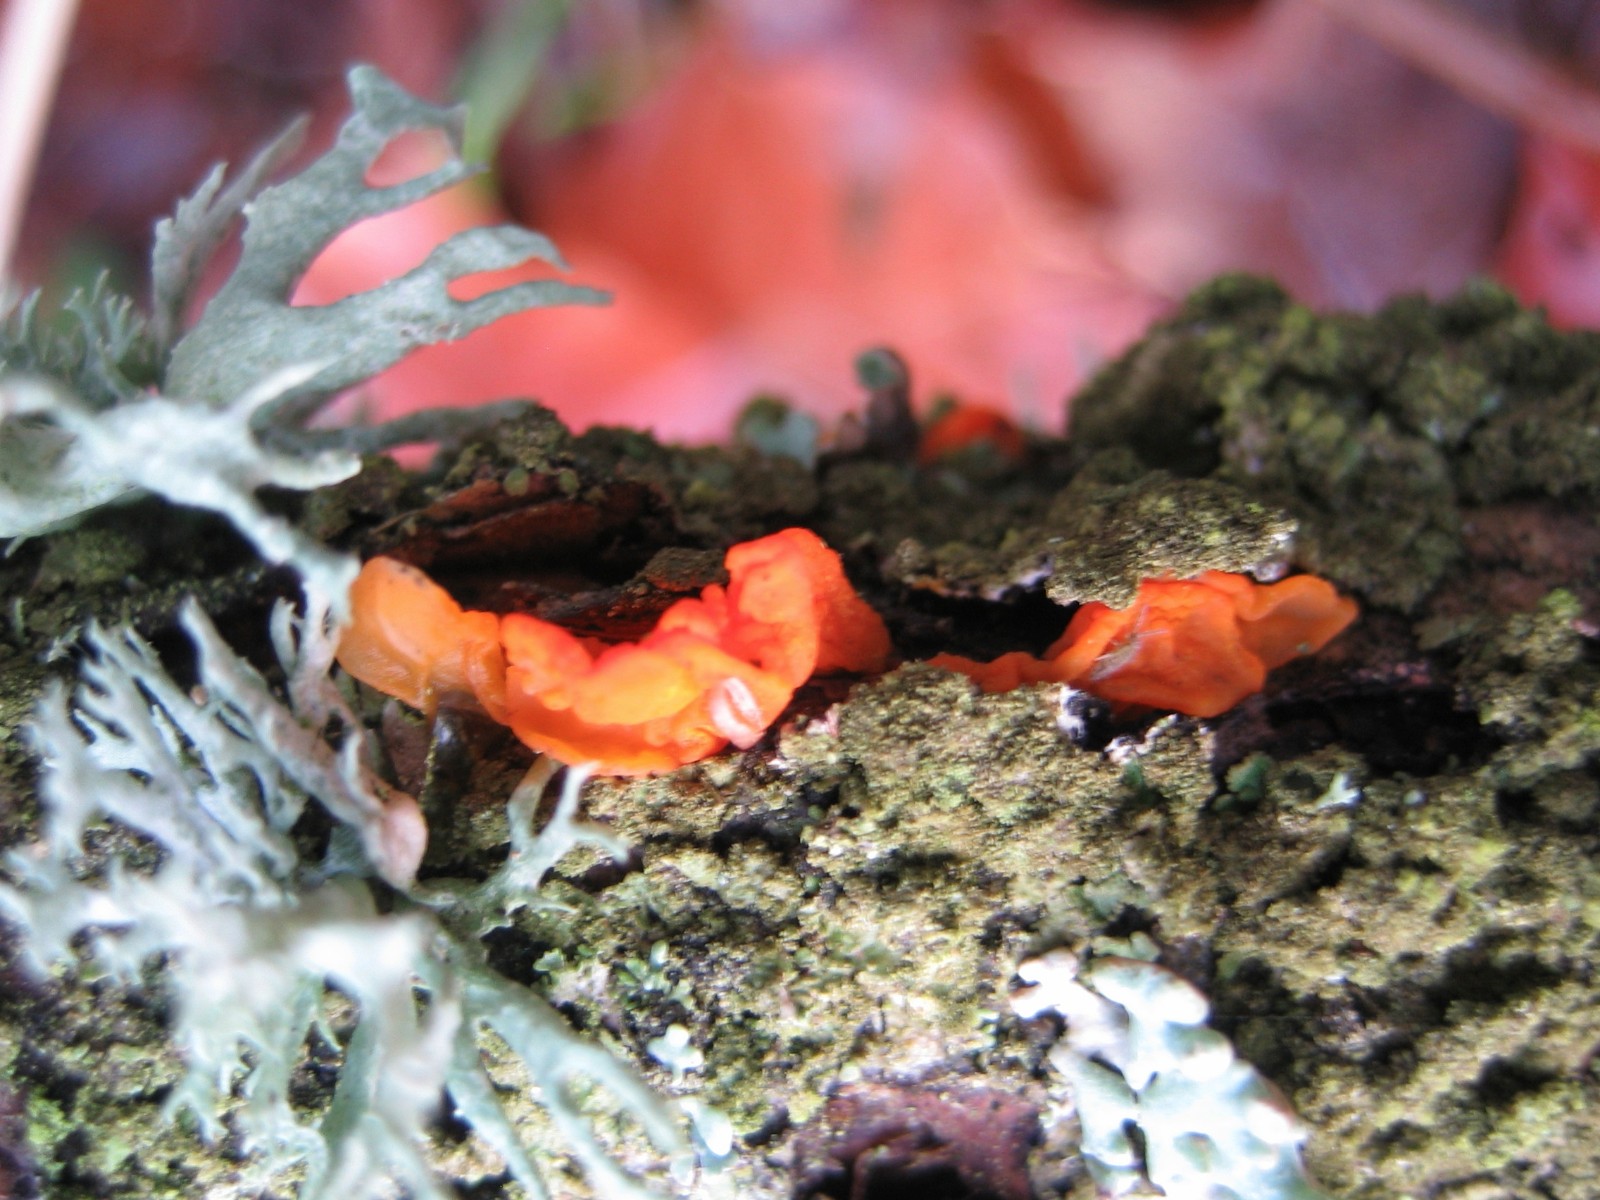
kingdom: Fungi
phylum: Basidiomycota
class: Tremellomycetes
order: Tremellales
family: Tremellaceae
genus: Tremella
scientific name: Tremella mesenterica
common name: gul bævresvamp
